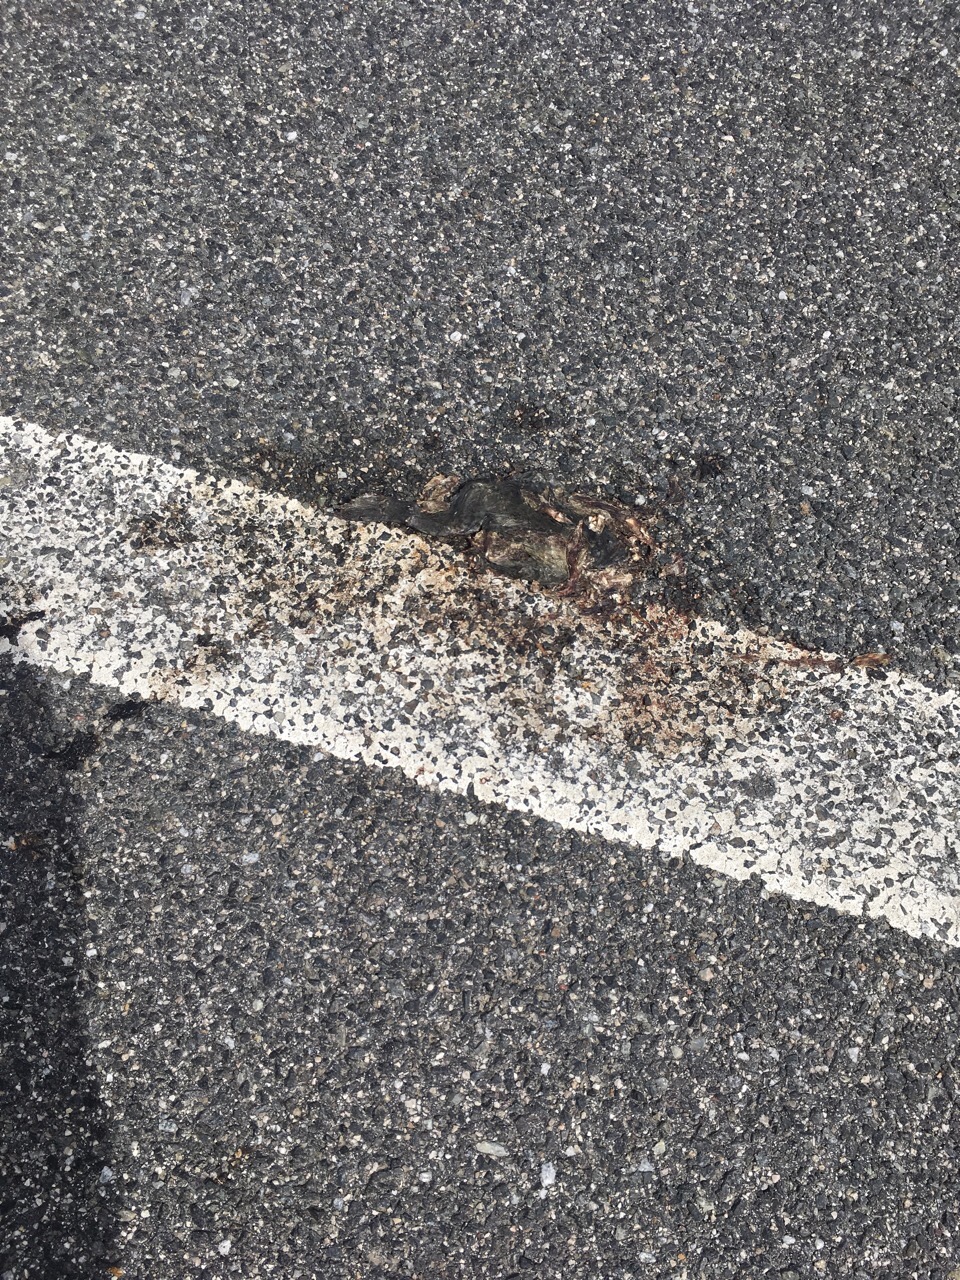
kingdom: Animalia
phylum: Chordata
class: Amphibia
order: Anura
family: Bufonidae
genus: Bufotes
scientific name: Bufotes viridis
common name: European green toad
